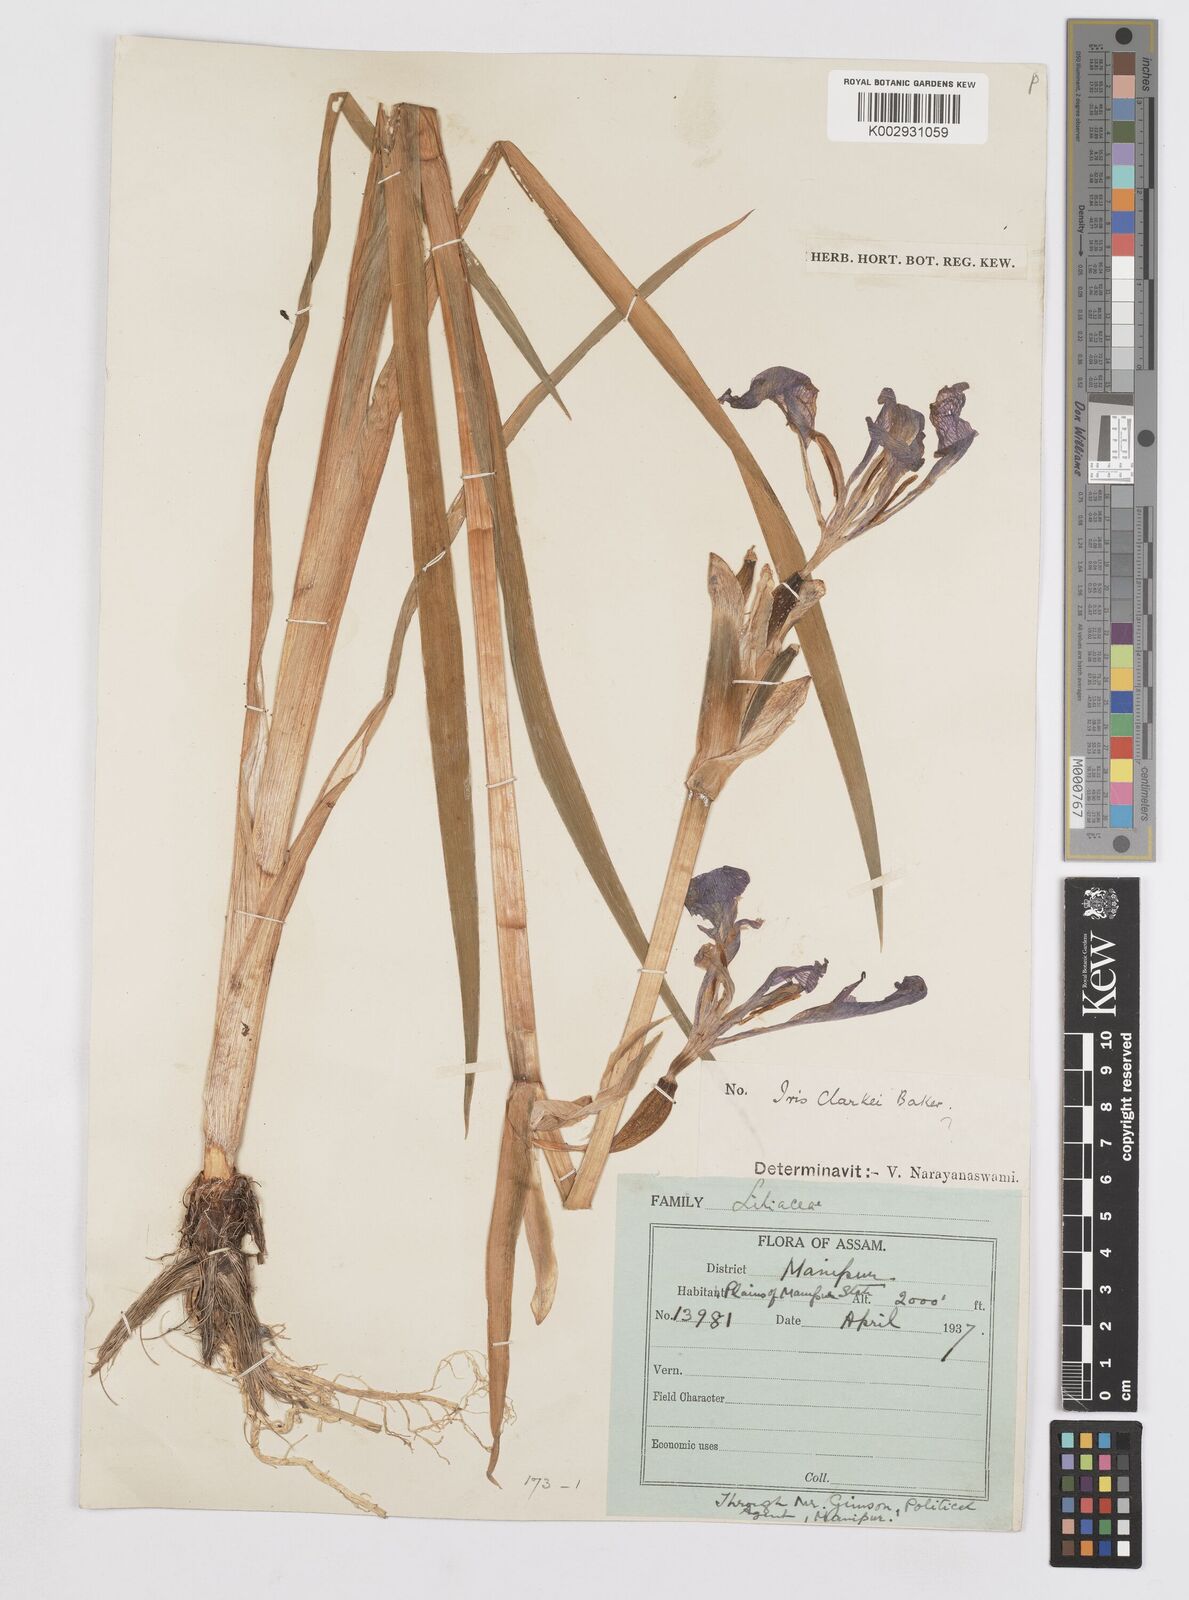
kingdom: Plantae
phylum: Tracheophyta
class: Liliopsida
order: Asparagales
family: Iridaceae
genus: Iris
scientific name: Iris clarkei
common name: Tibet iris
